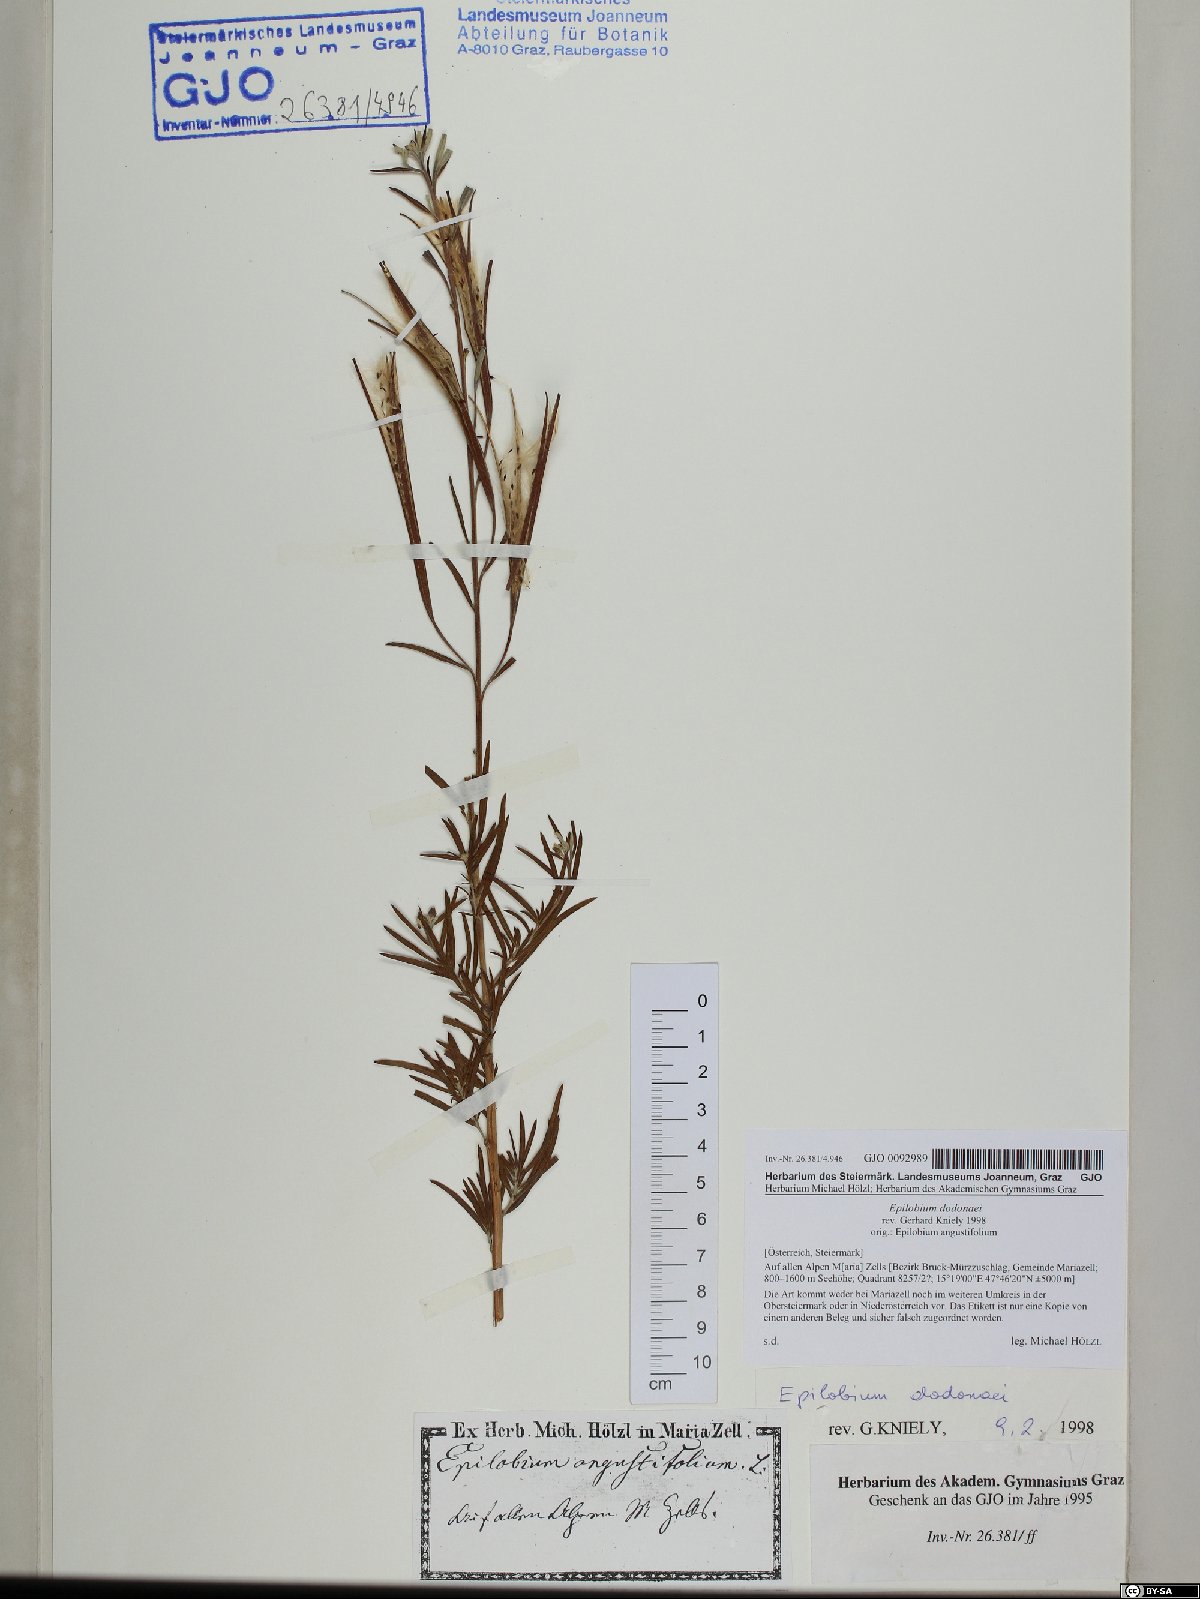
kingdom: Plantae
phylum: Tracheophyta
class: Magnoliopsida
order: Myrtales
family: Onagraceae
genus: Chamaenerion
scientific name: Chamaenerion dodonaei
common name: Rosemary-leaved willowherb
